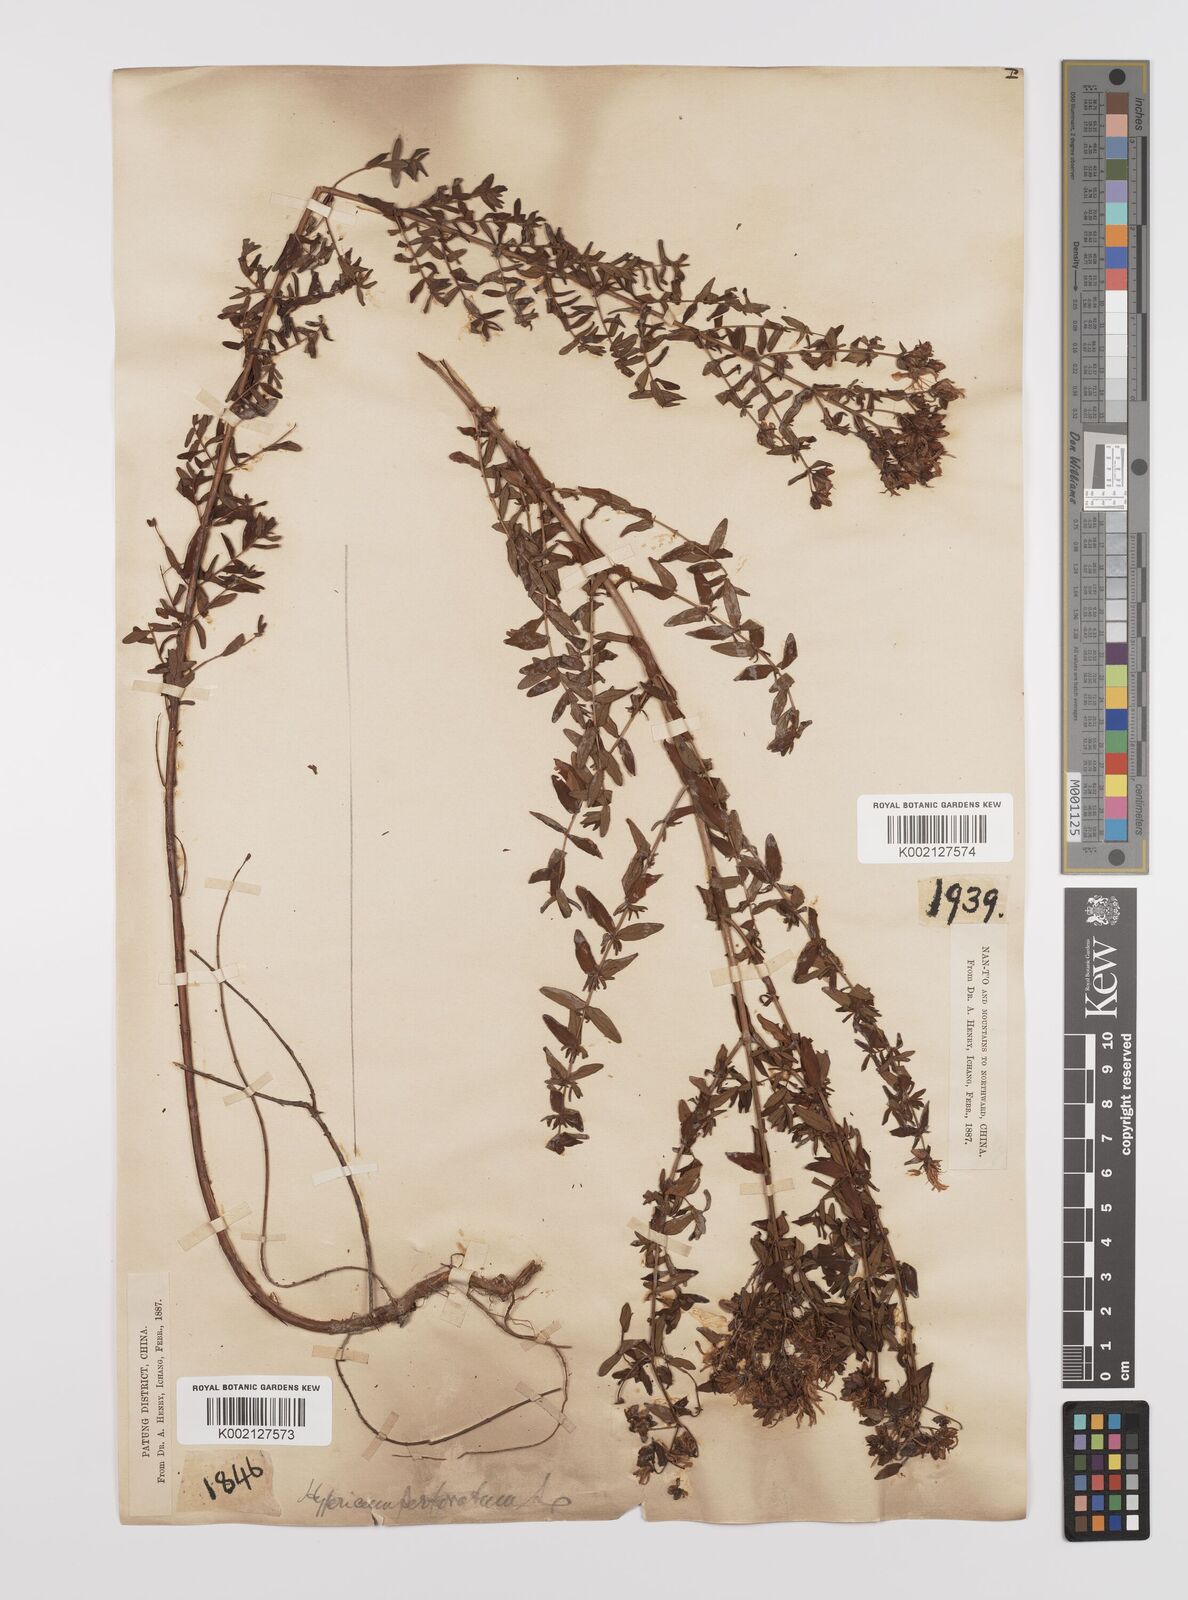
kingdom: Plantae
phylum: Tracheophyta
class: Magnoliopsida
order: Malpighiales
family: Hypericaceae
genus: Hypericum
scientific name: Hypericum perforatum
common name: Common st. johnswort
